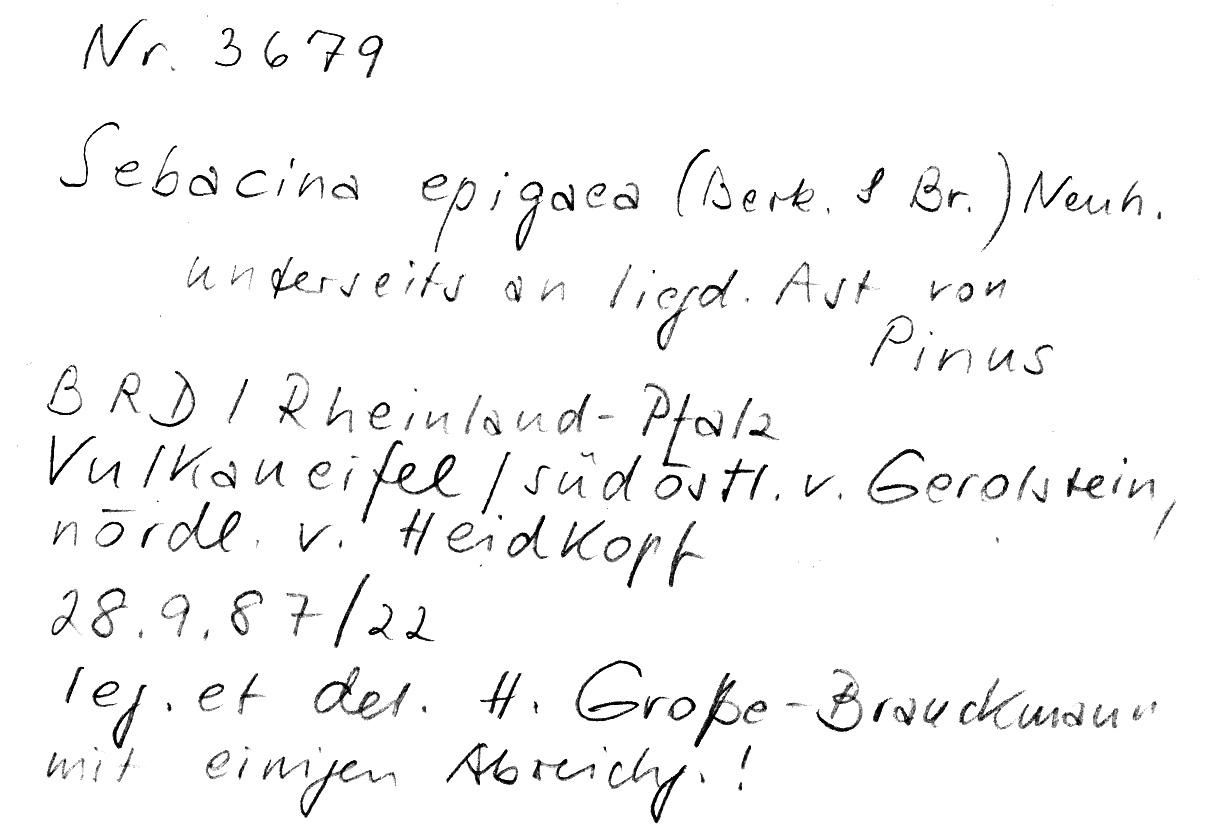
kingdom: Plantae
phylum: Tracheophyta
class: Pinopsida
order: Pinales
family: Pinaceae
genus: Pinus
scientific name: Pinus
